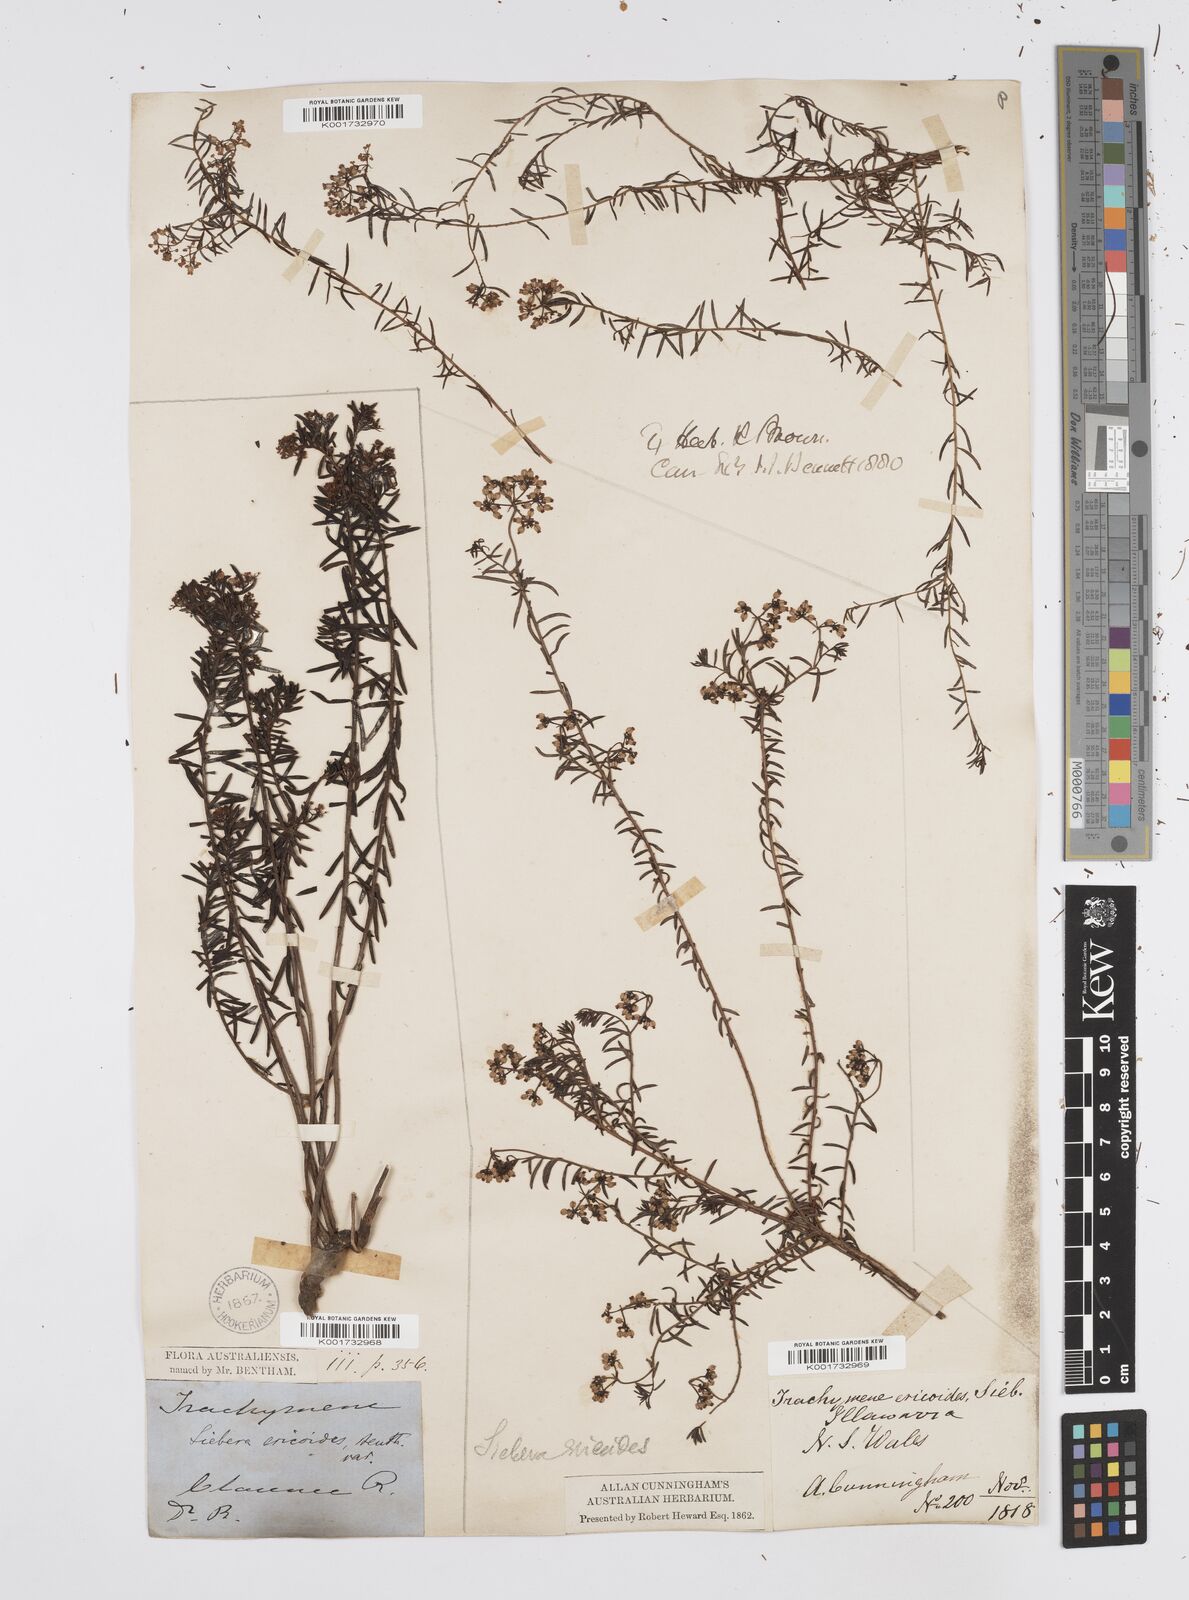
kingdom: Plantae
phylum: Tracheophyta
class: Magnoliopsida
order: Apiales
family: Apiaceae
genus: Platysace
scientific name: Platysace ericoides
